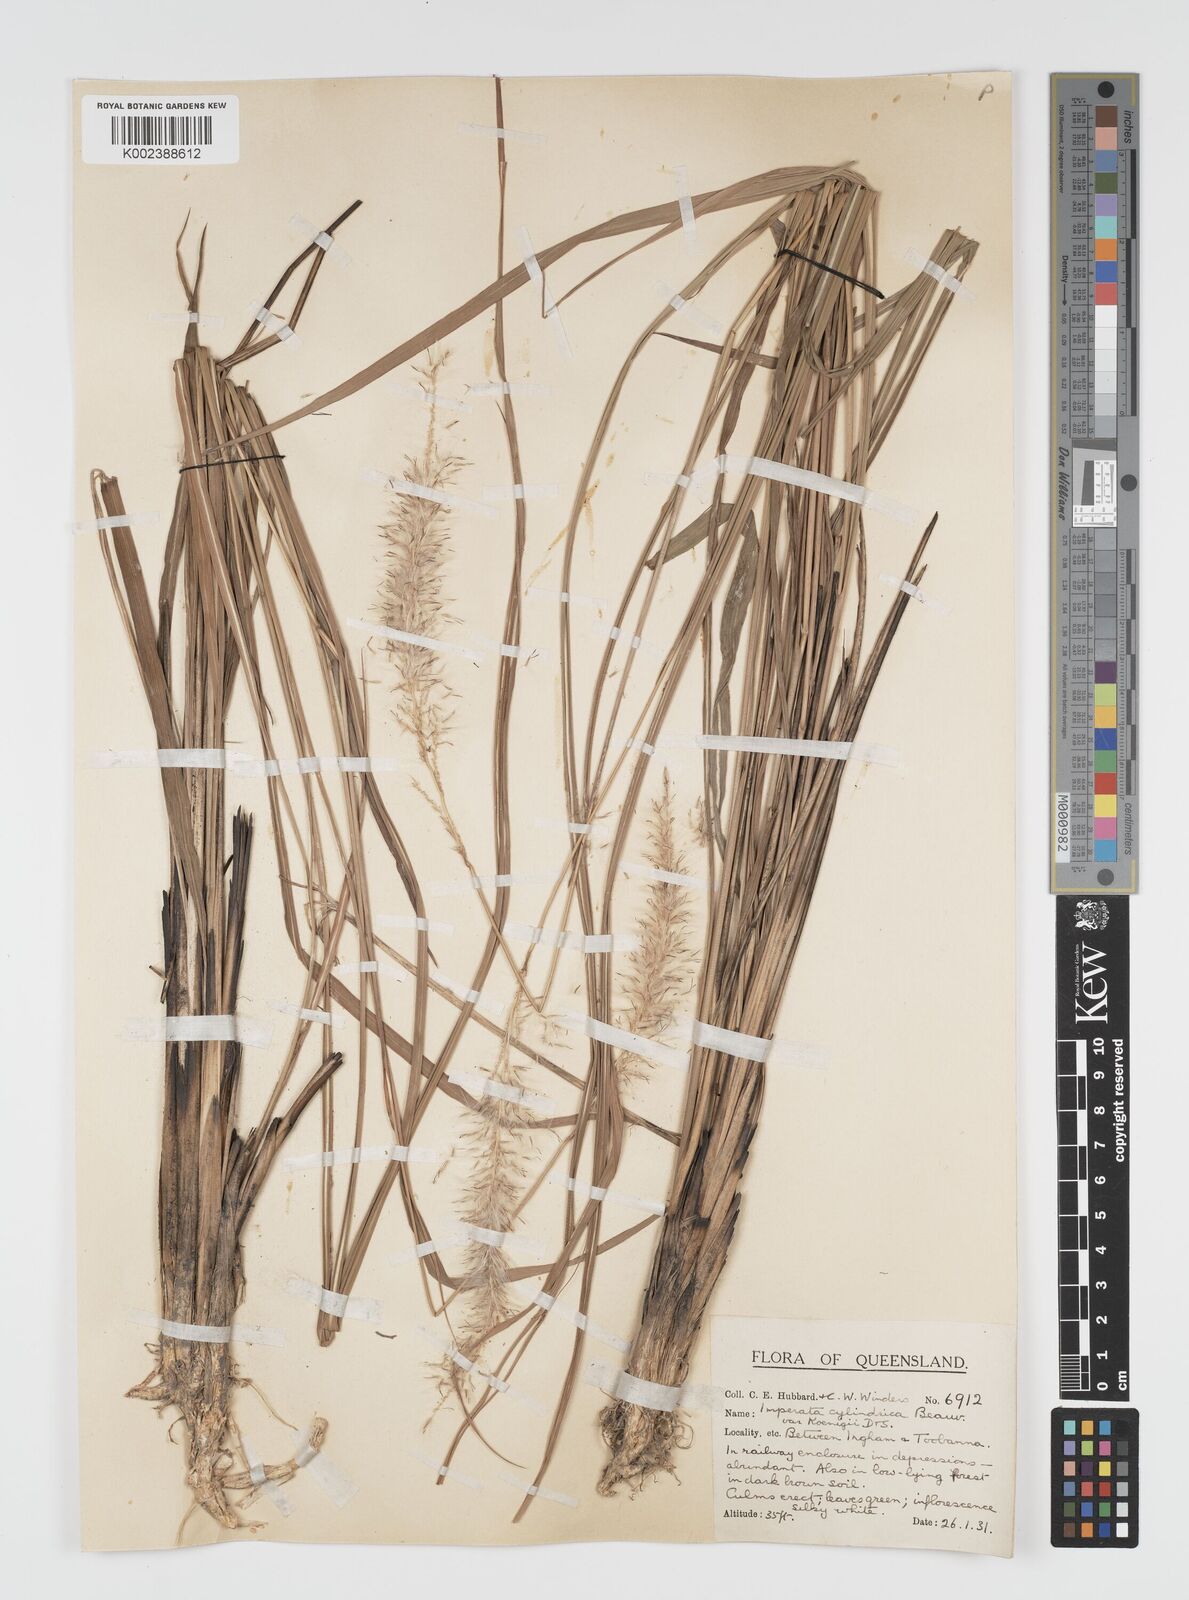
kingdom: Plantae
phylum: Tracheophyta
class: Liliopsida
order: Poales
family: Poaceae
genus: Imperata
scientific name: Imperata cylindrica
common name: Cogongrass
